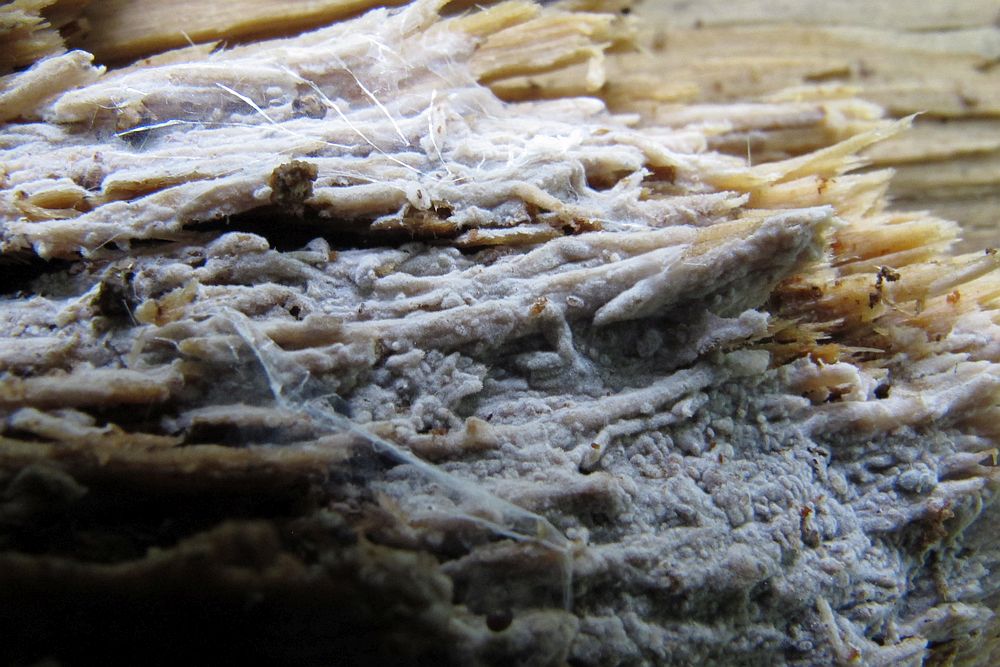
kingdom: Fungi
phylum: Basidiomycota
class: Agaricomycetes
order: Trechisporales
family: Hydnodontaceae
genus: Subulicystidium
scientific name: Subulicystidium longisporum
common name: almindelig pigtrådshinde
